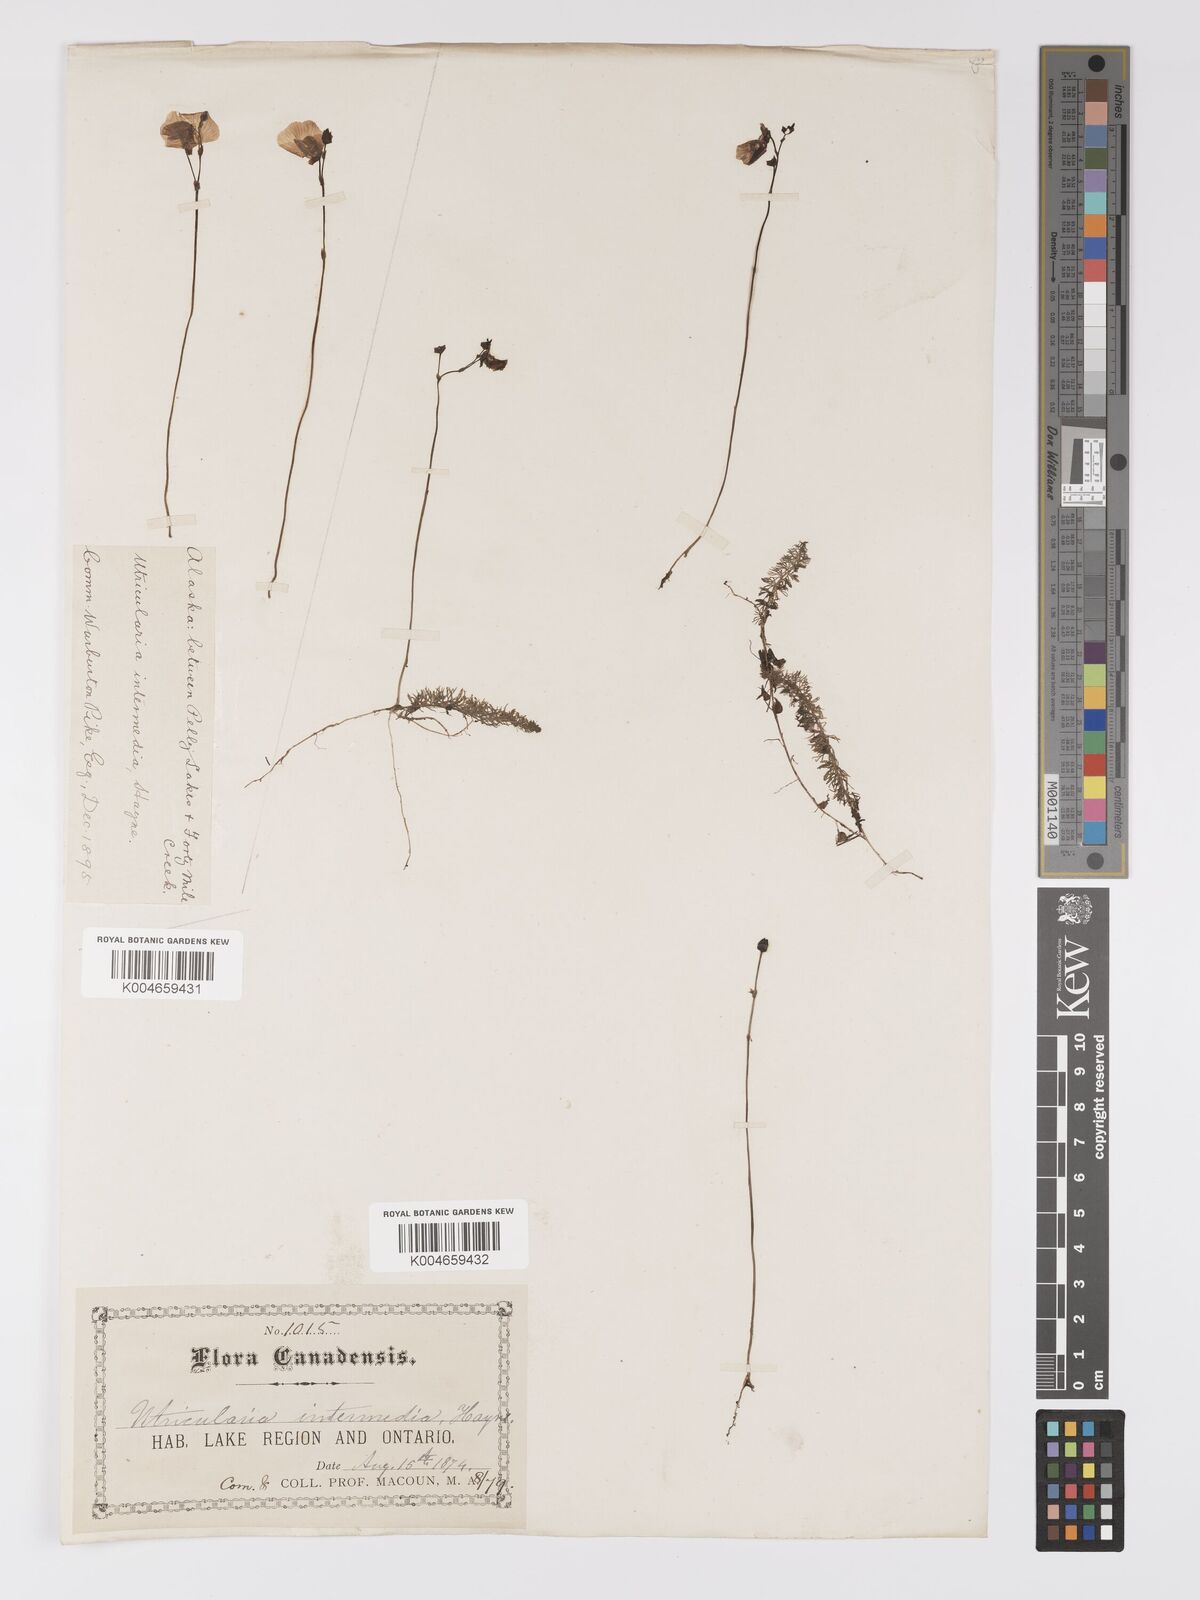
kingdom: Plantae
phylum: Tracheophyta
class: Magnoliopsida
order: Lamiales
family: Lentibulariaceae
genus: Utricularia
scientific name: Utricularia intermedia
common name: Intermediate bladderwort
